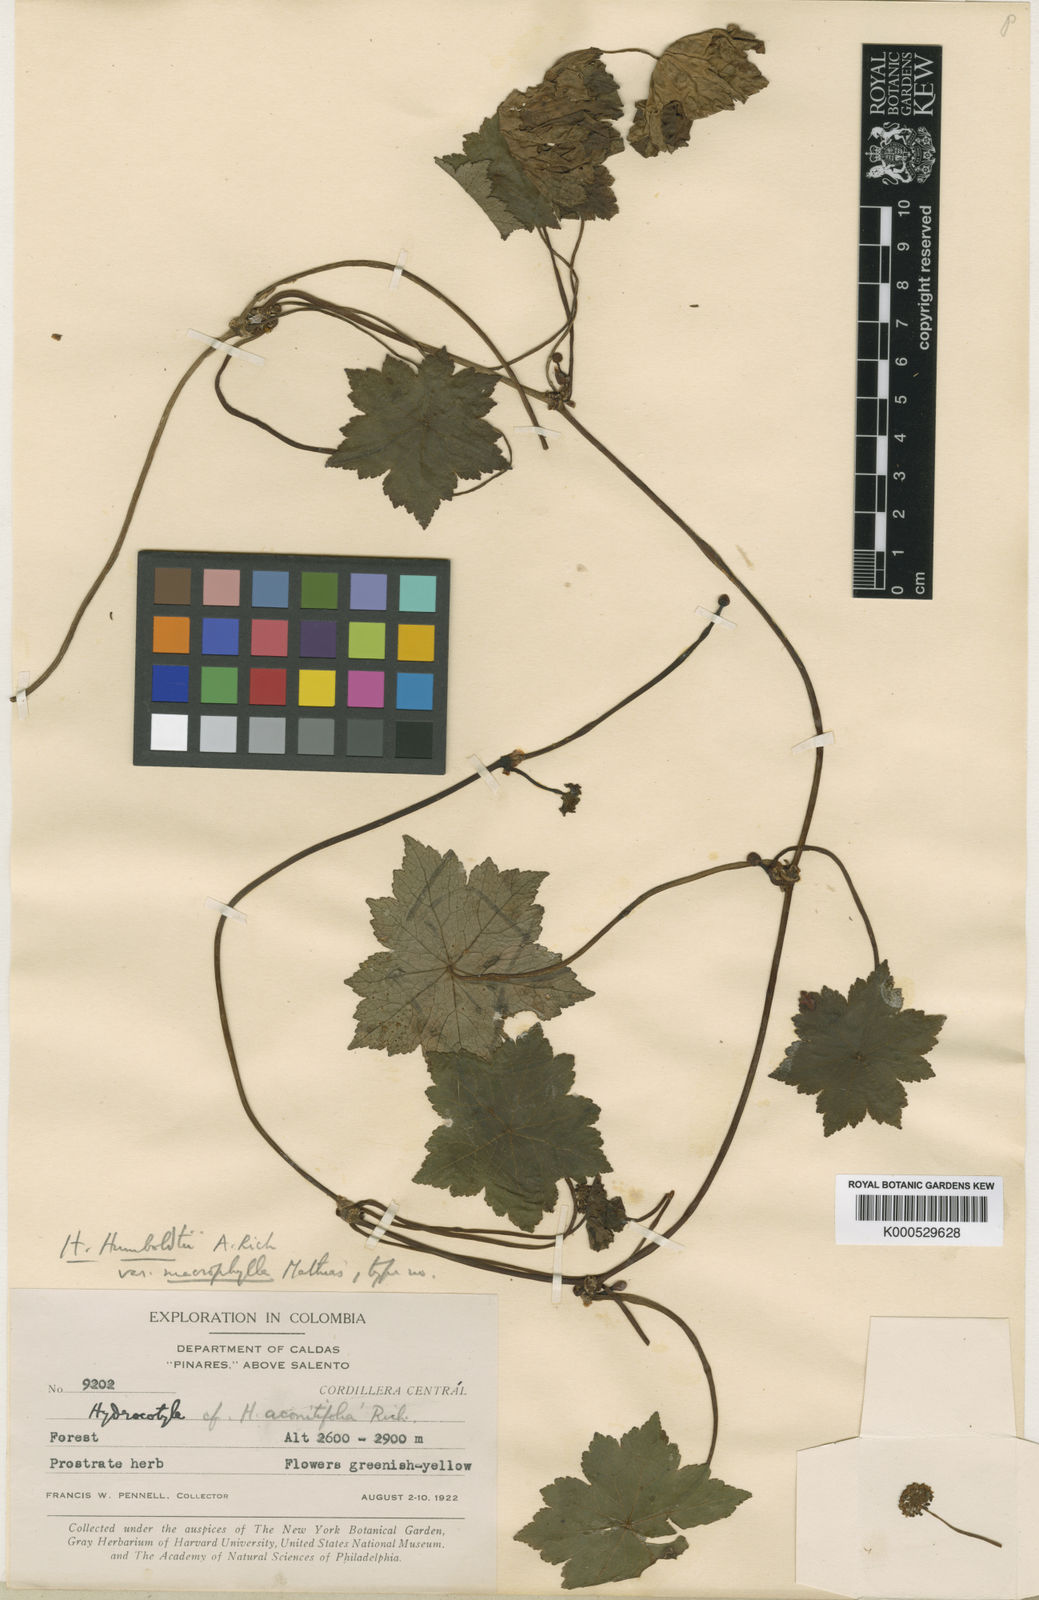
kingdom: Plantae
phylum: Tracheophyta
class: Magnoliopsida
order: Apiales
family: Araliaceae
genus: Hydrocotyle
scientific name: Hydrocotyle humboldtii
